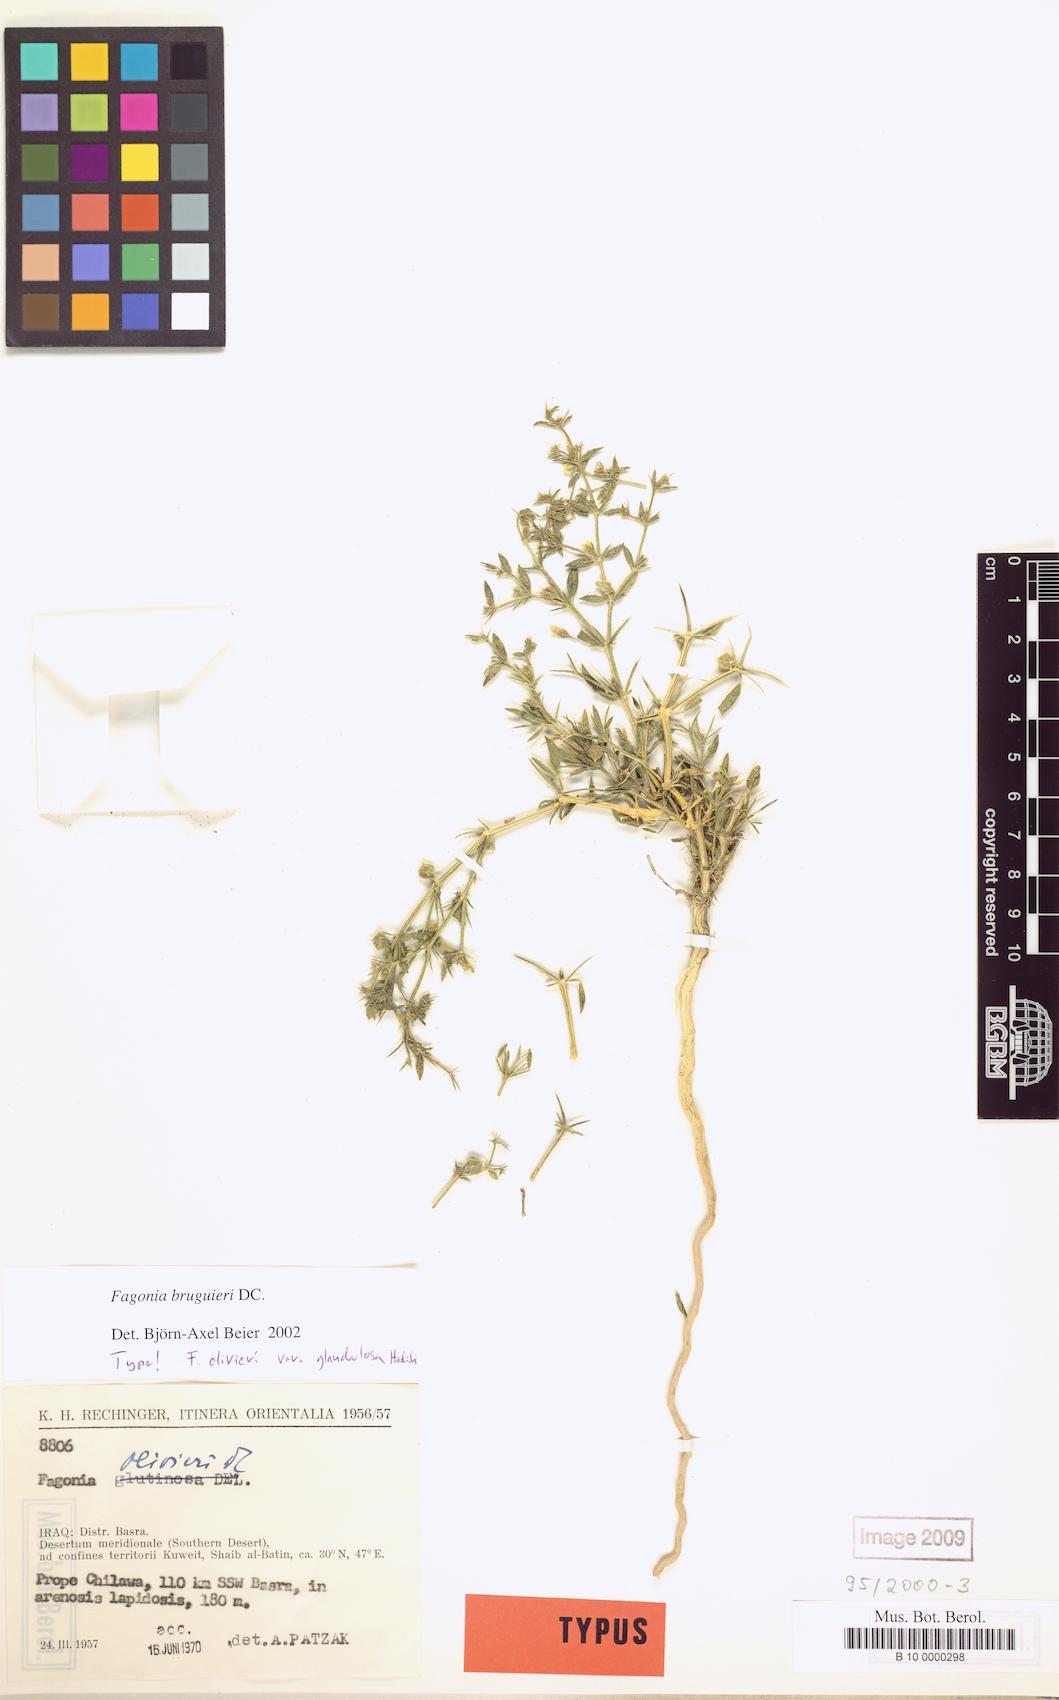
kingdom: Plantae
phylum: Tracheophyta
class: Magnoliopsida
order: Zygophyllales
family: Zygophyllaceae
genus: Fagonia
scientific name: Fagonia bruguieri
